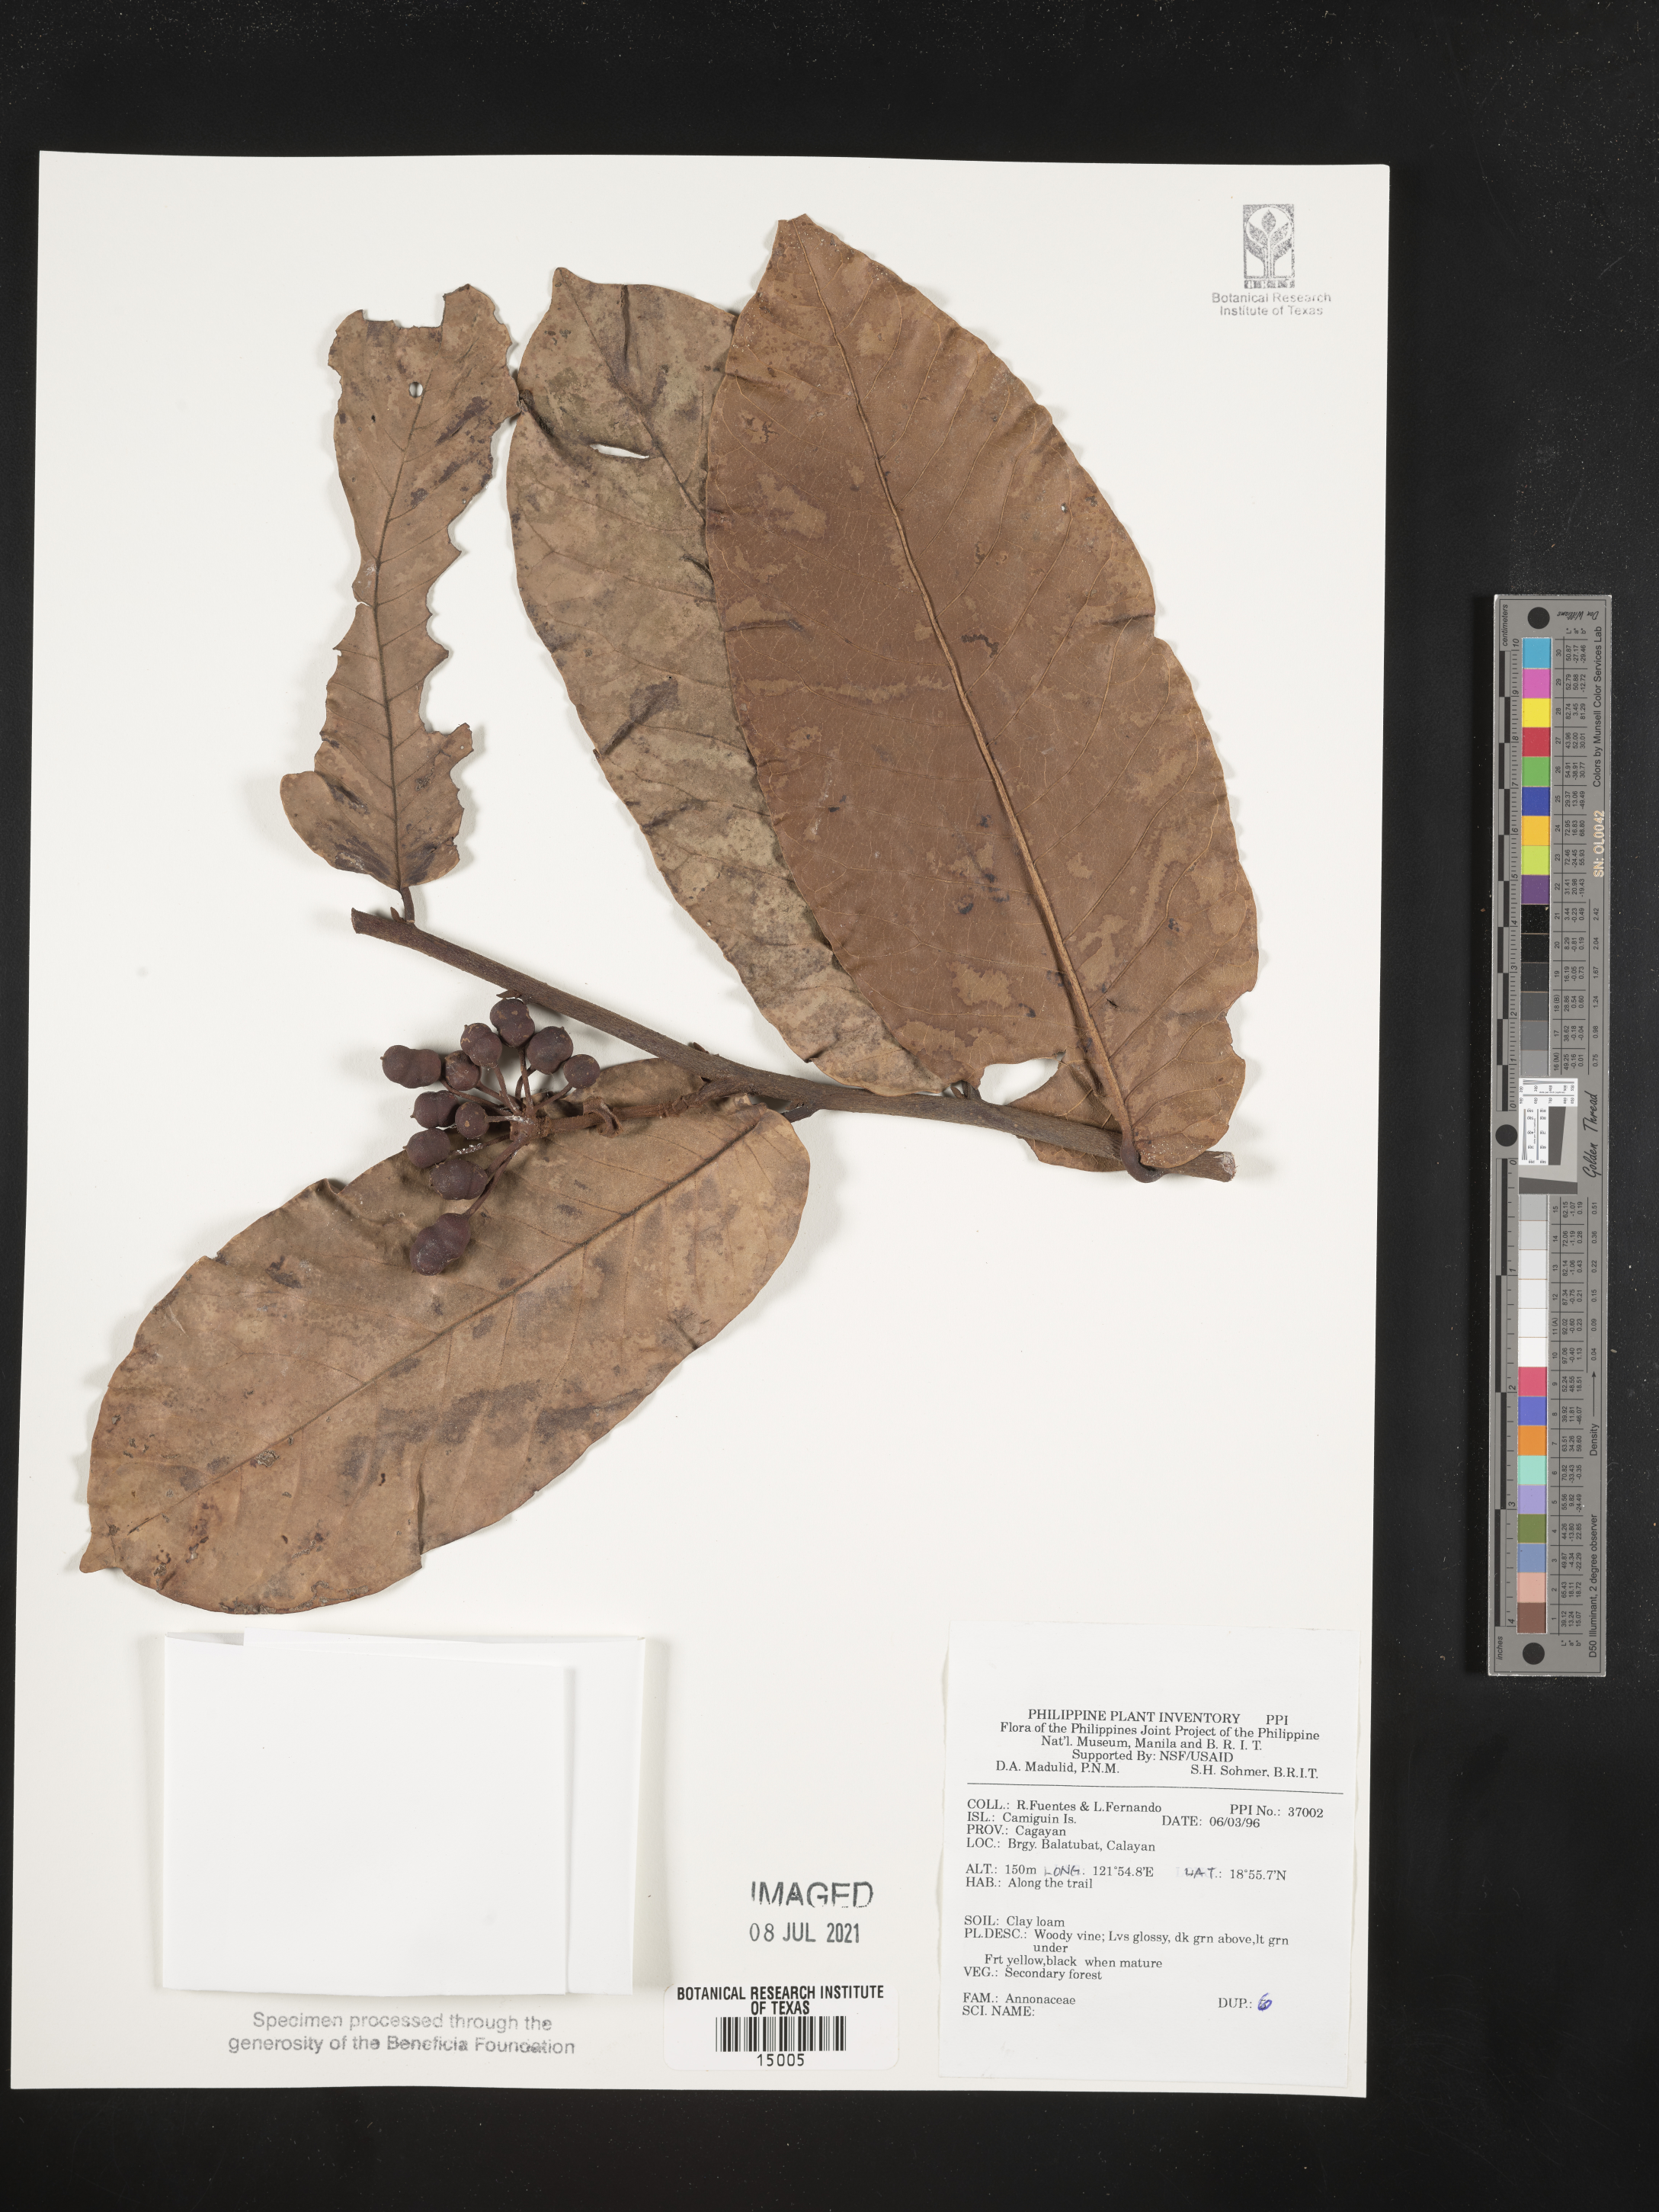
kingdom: Plantae
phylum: Tracheophyta
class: Magnoliopsida
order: Magnoliales
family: Annonaceae
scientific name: Annonaceae
